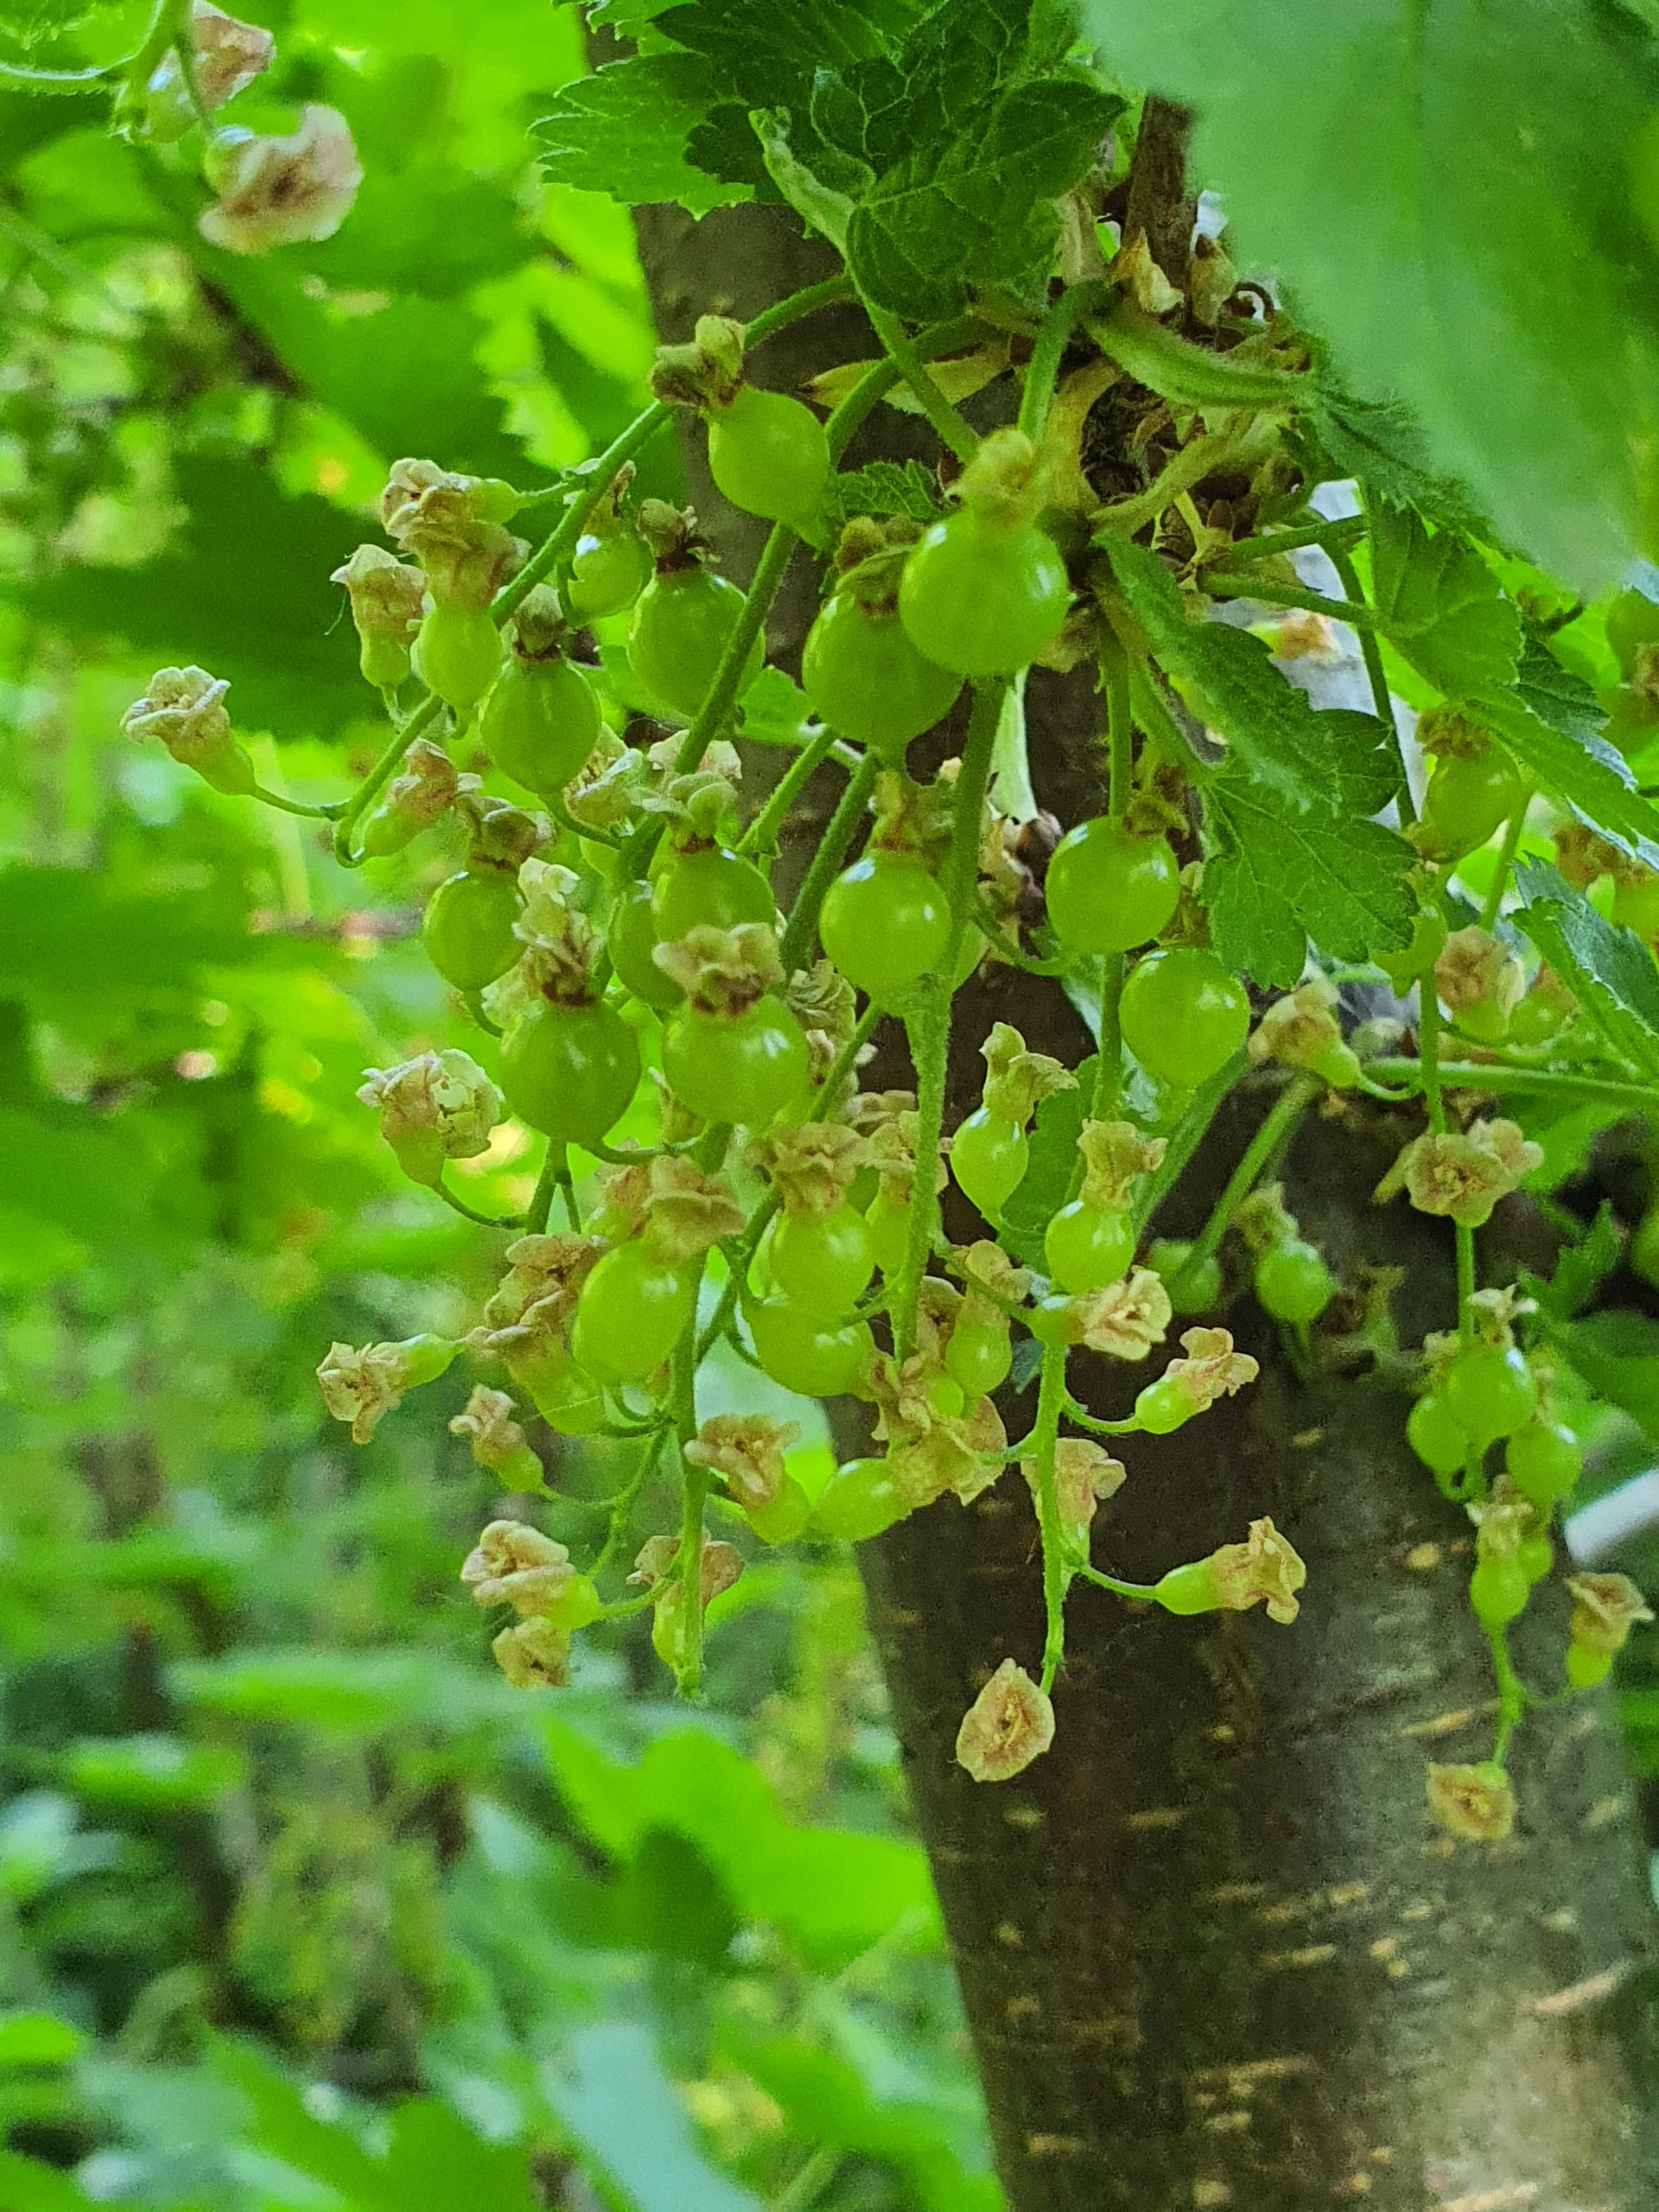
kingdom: Plantae
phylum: Tracheophyta
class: Magnoliopsida
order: Saxifragales
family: Grossulariaceae
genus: Ribes
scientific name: Ribes spicatum
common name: Vild ribs
